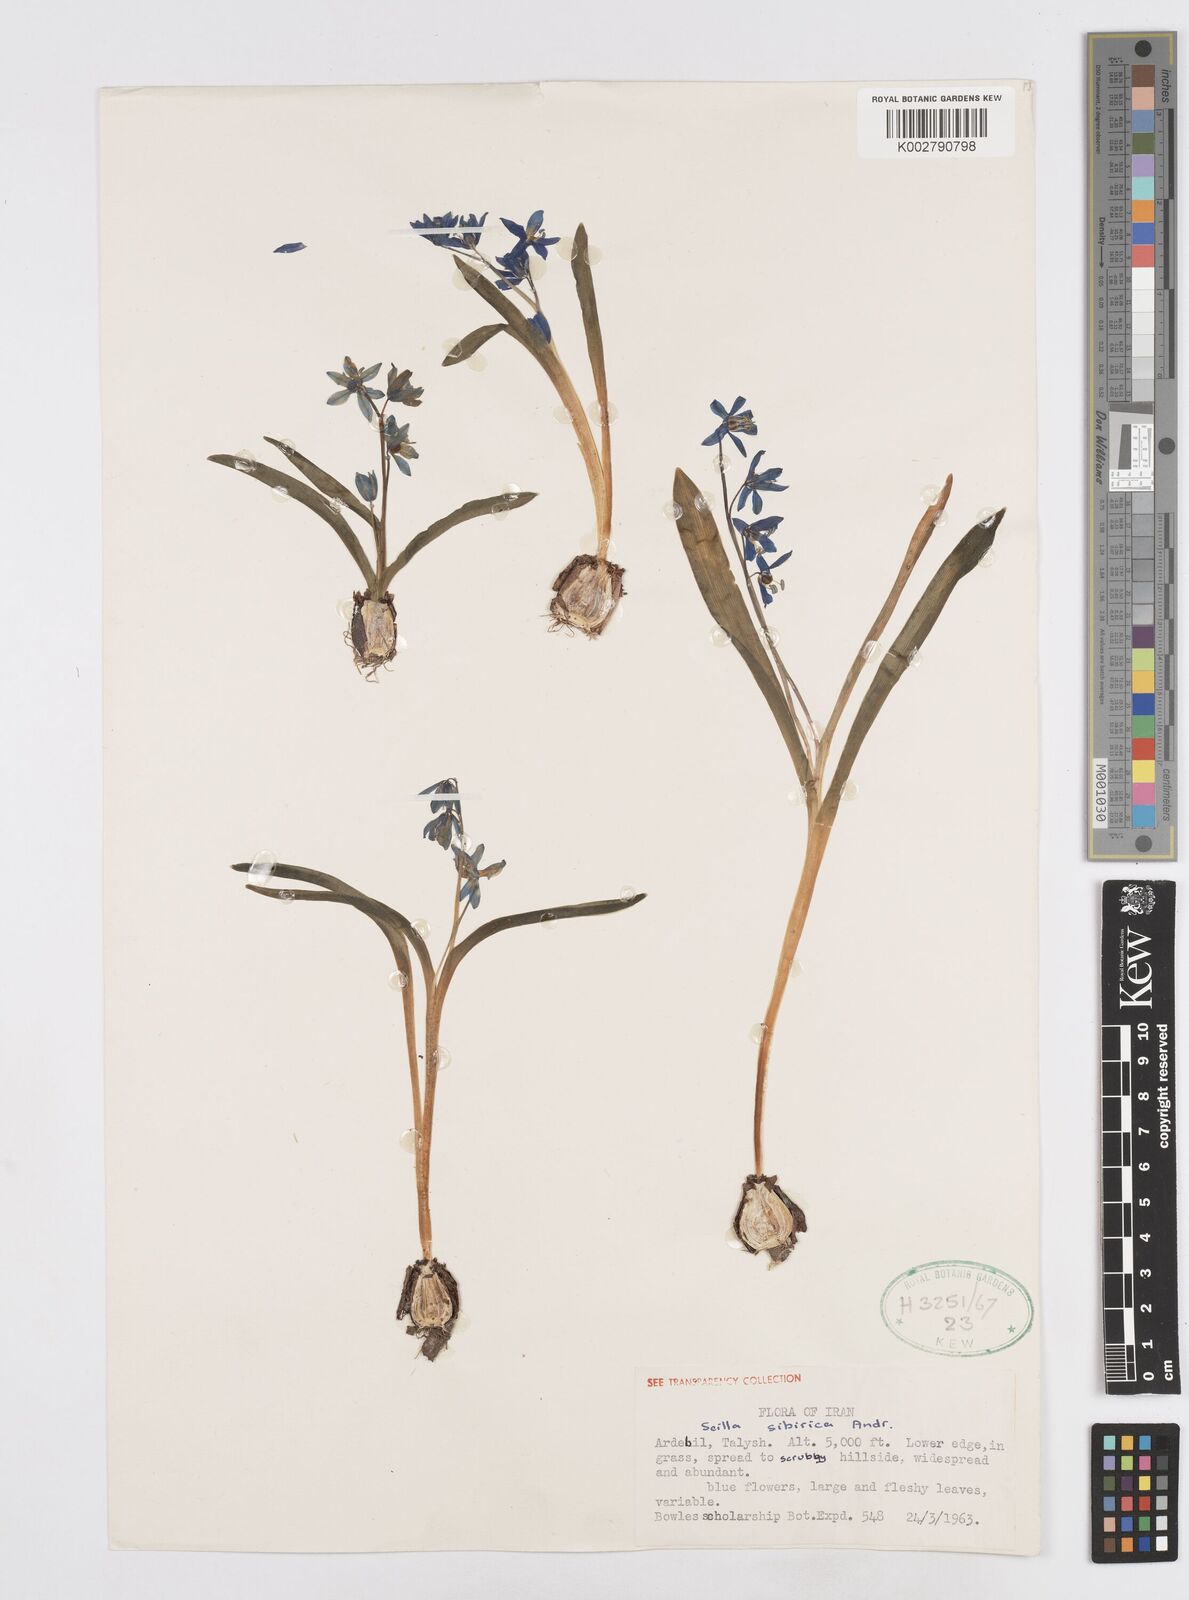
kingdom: Plantae
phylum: Tracheophyta
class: Liliopsida
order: Asparagales
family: Asparagaceae
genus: Scilla
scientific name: Scilla siberica
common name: Siberian squill
